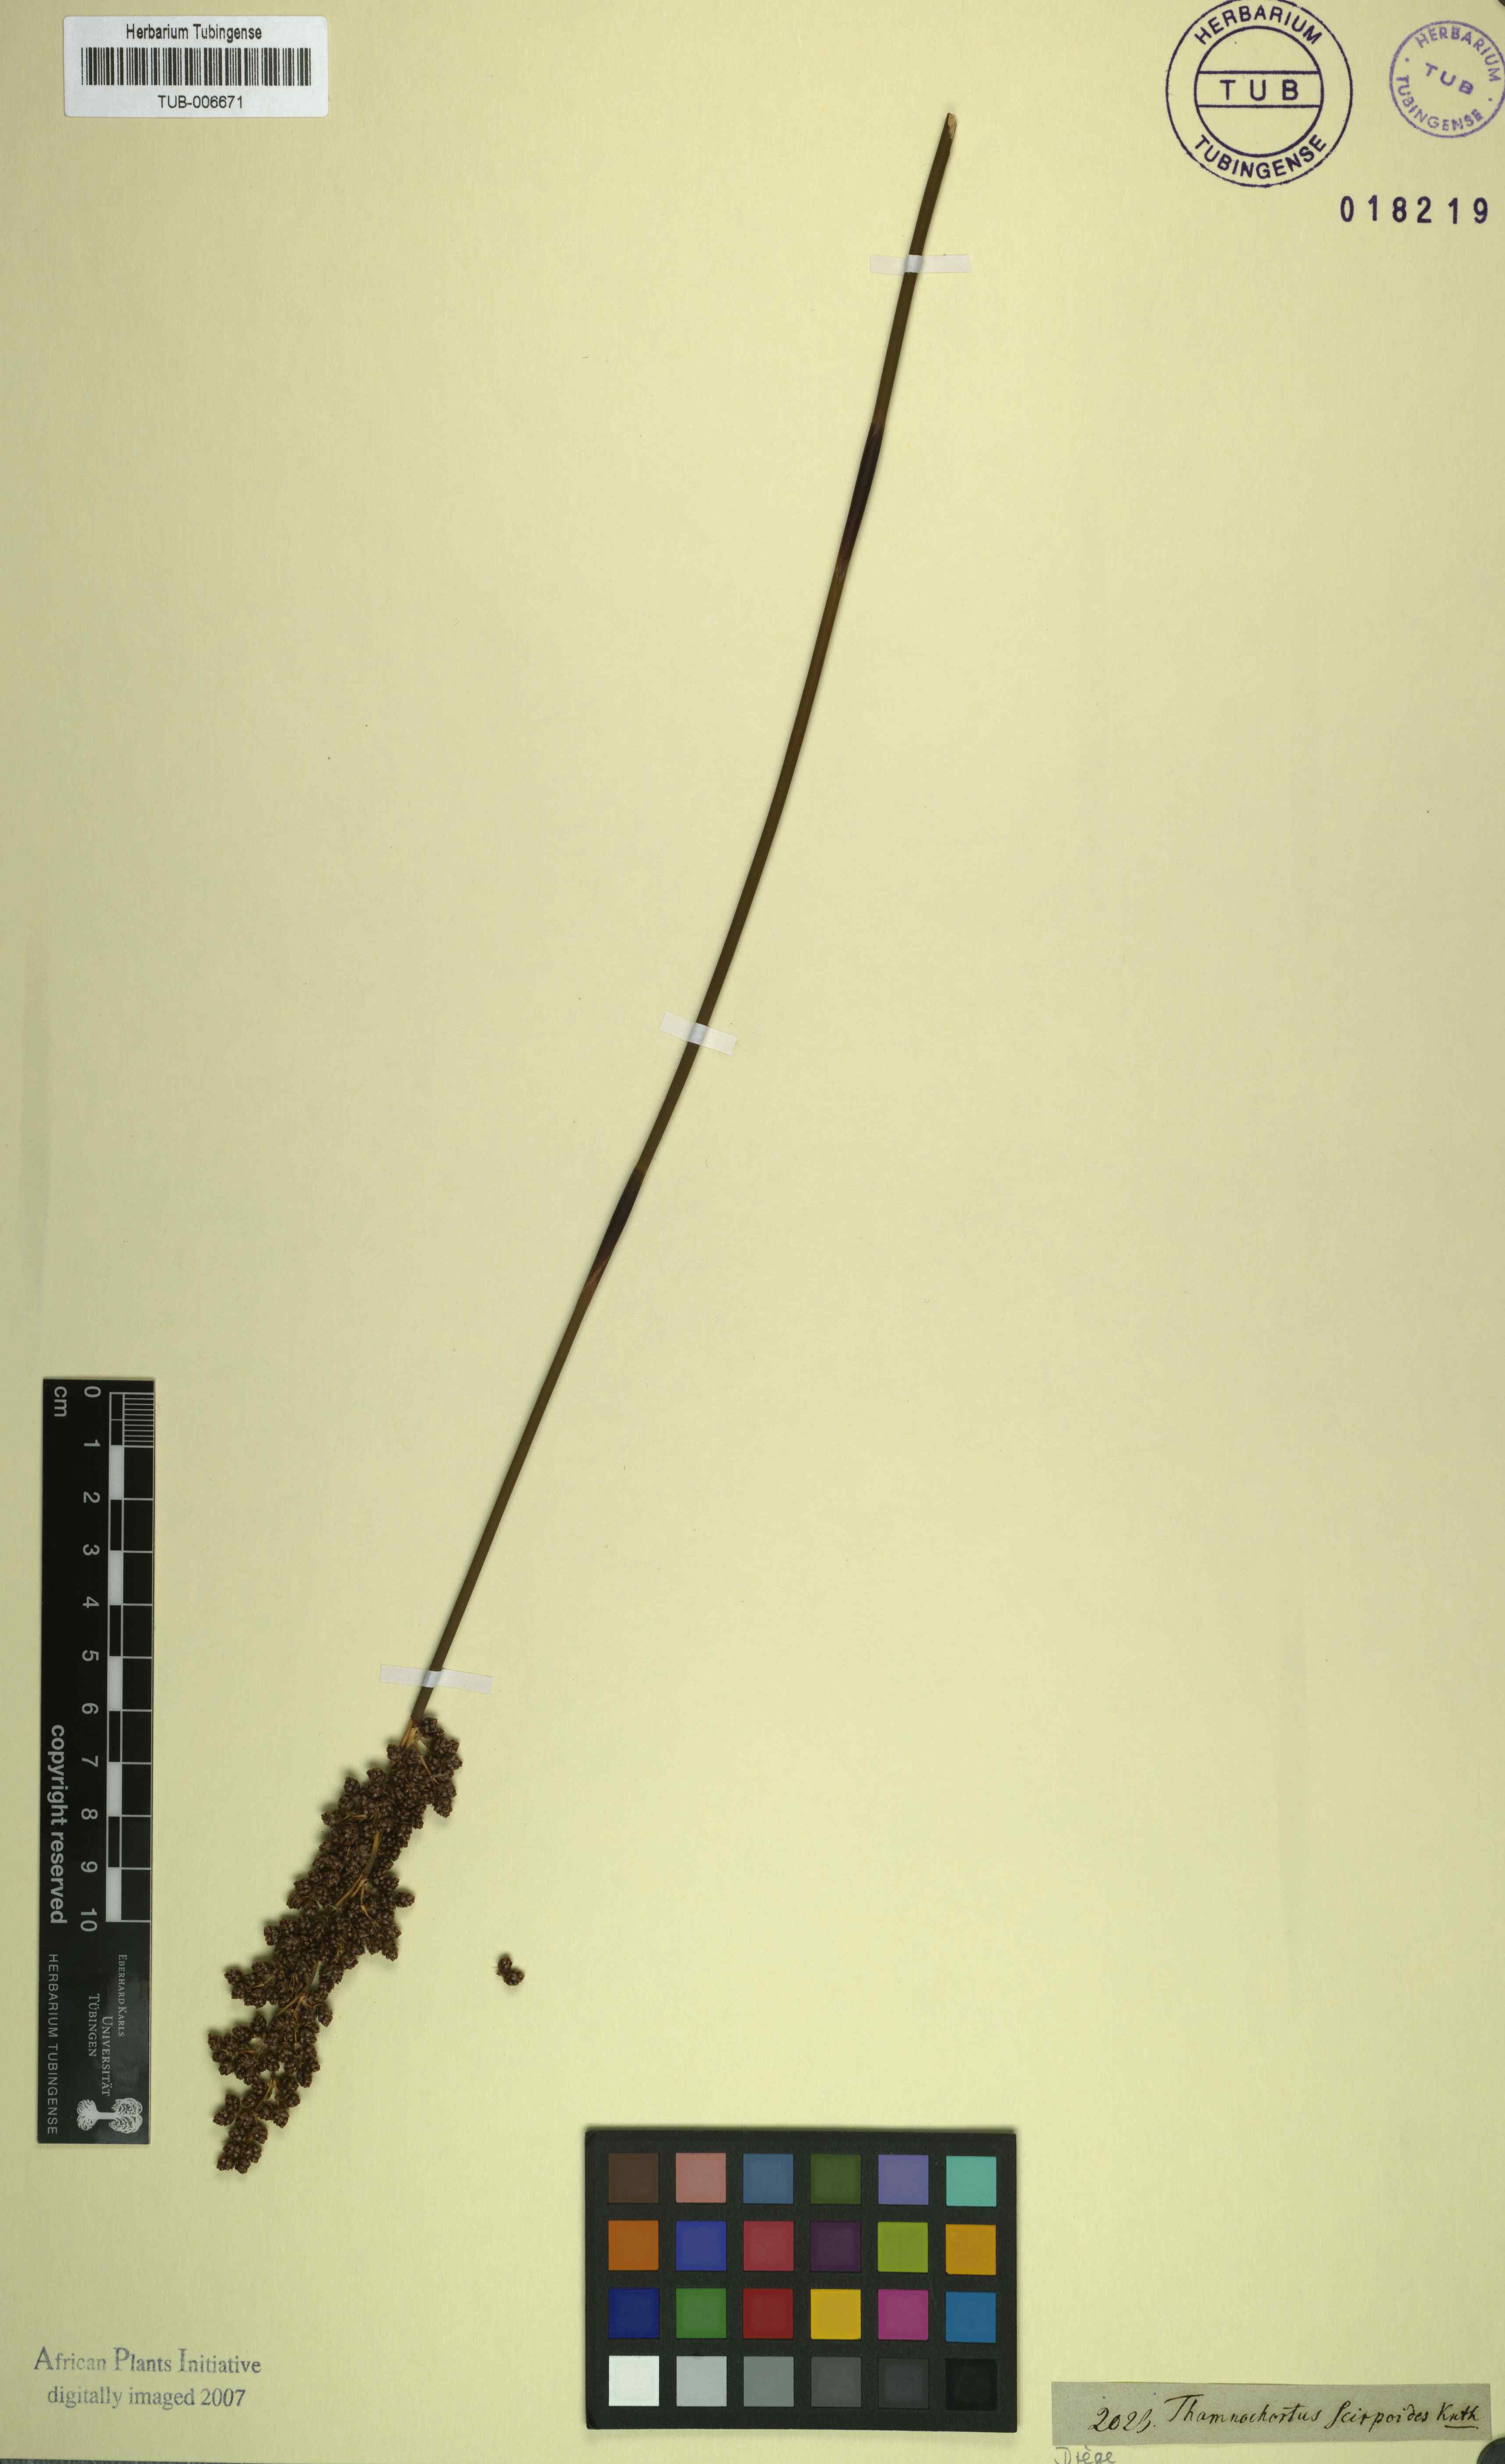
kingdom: Plantae
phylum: Tracheophyta
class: Liliopsida
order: Poales
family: Restionaceae
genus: Cannomois
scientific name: Cannomois scirpoides
